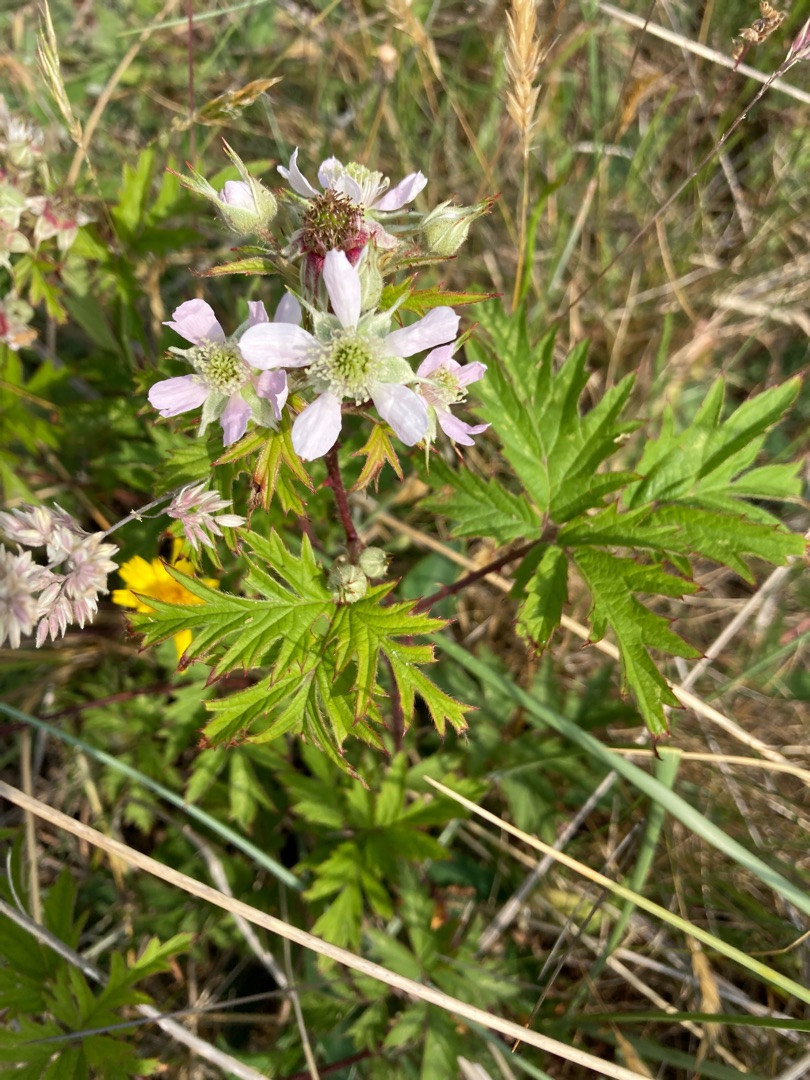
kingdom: Plantae
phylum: Tracheophyta
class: Magnoliopsida
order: Rosales
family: Rosaceae
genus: Rubus
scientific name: Rubus laciniatus
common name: Fliget brombær
